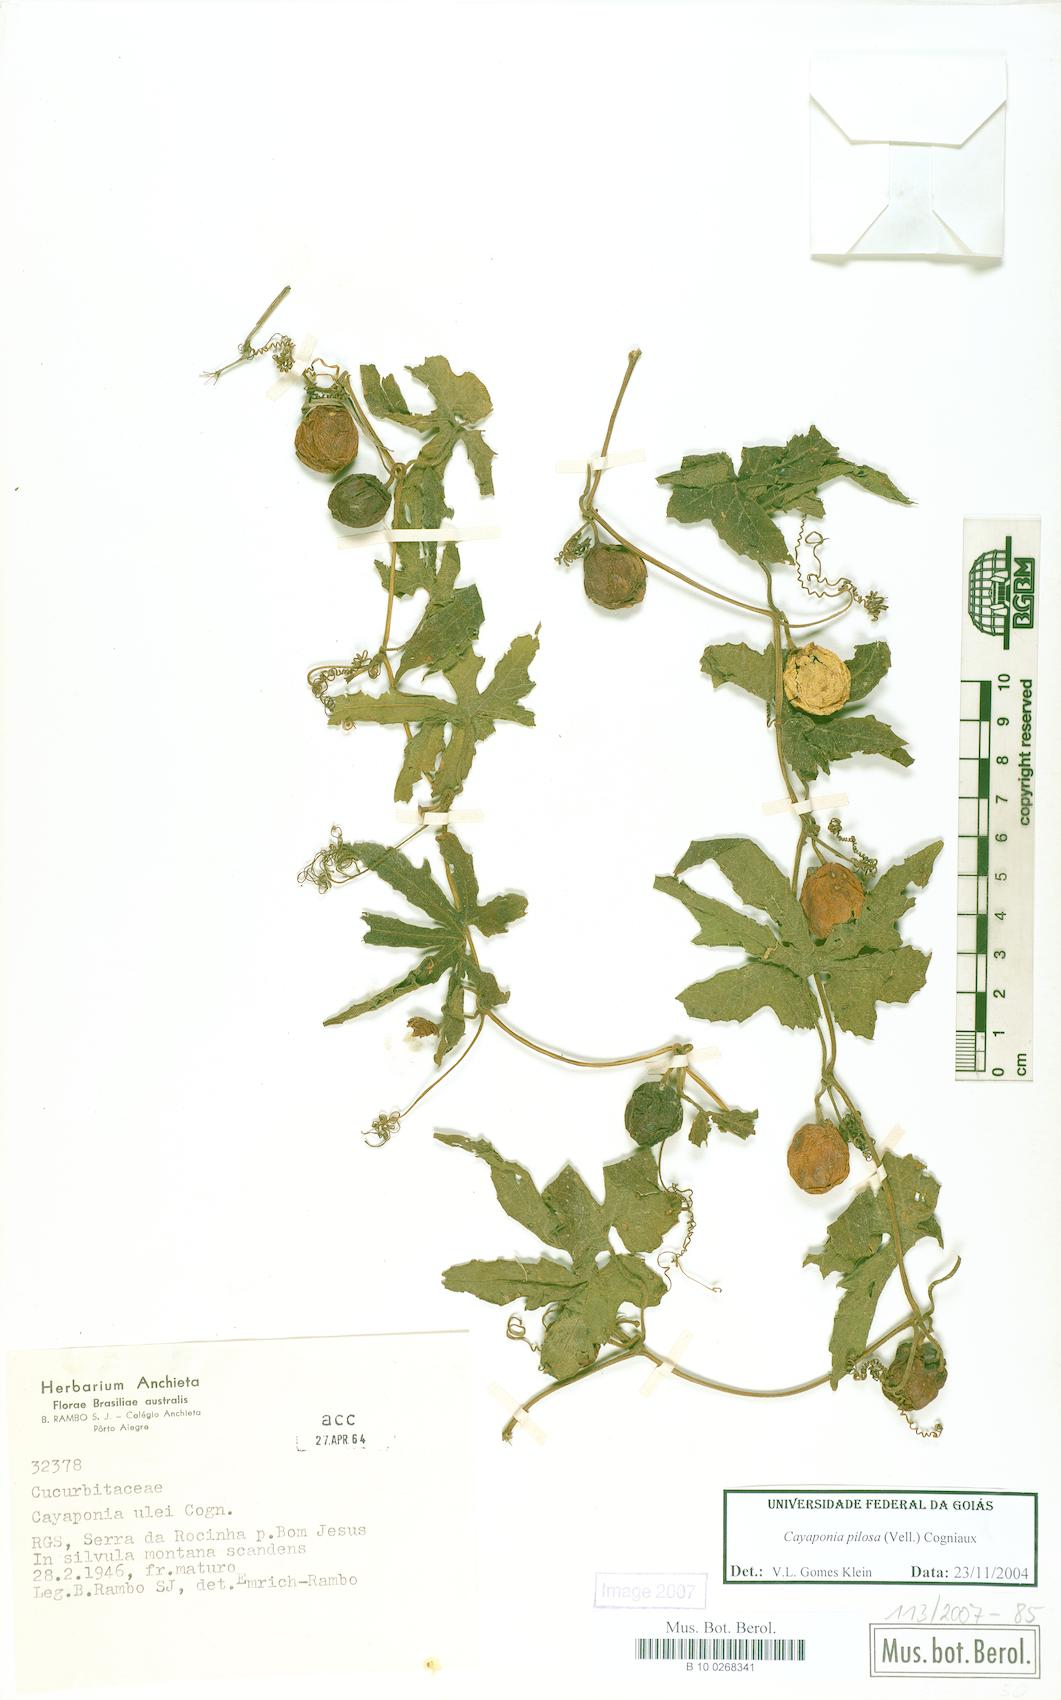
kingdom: Plantae
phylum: Tracheophyta
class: Magnoliopsida
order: Cucurbitales
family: Cucurbitaceae
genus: Cayaponia
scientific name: Cayaponia pilosa
